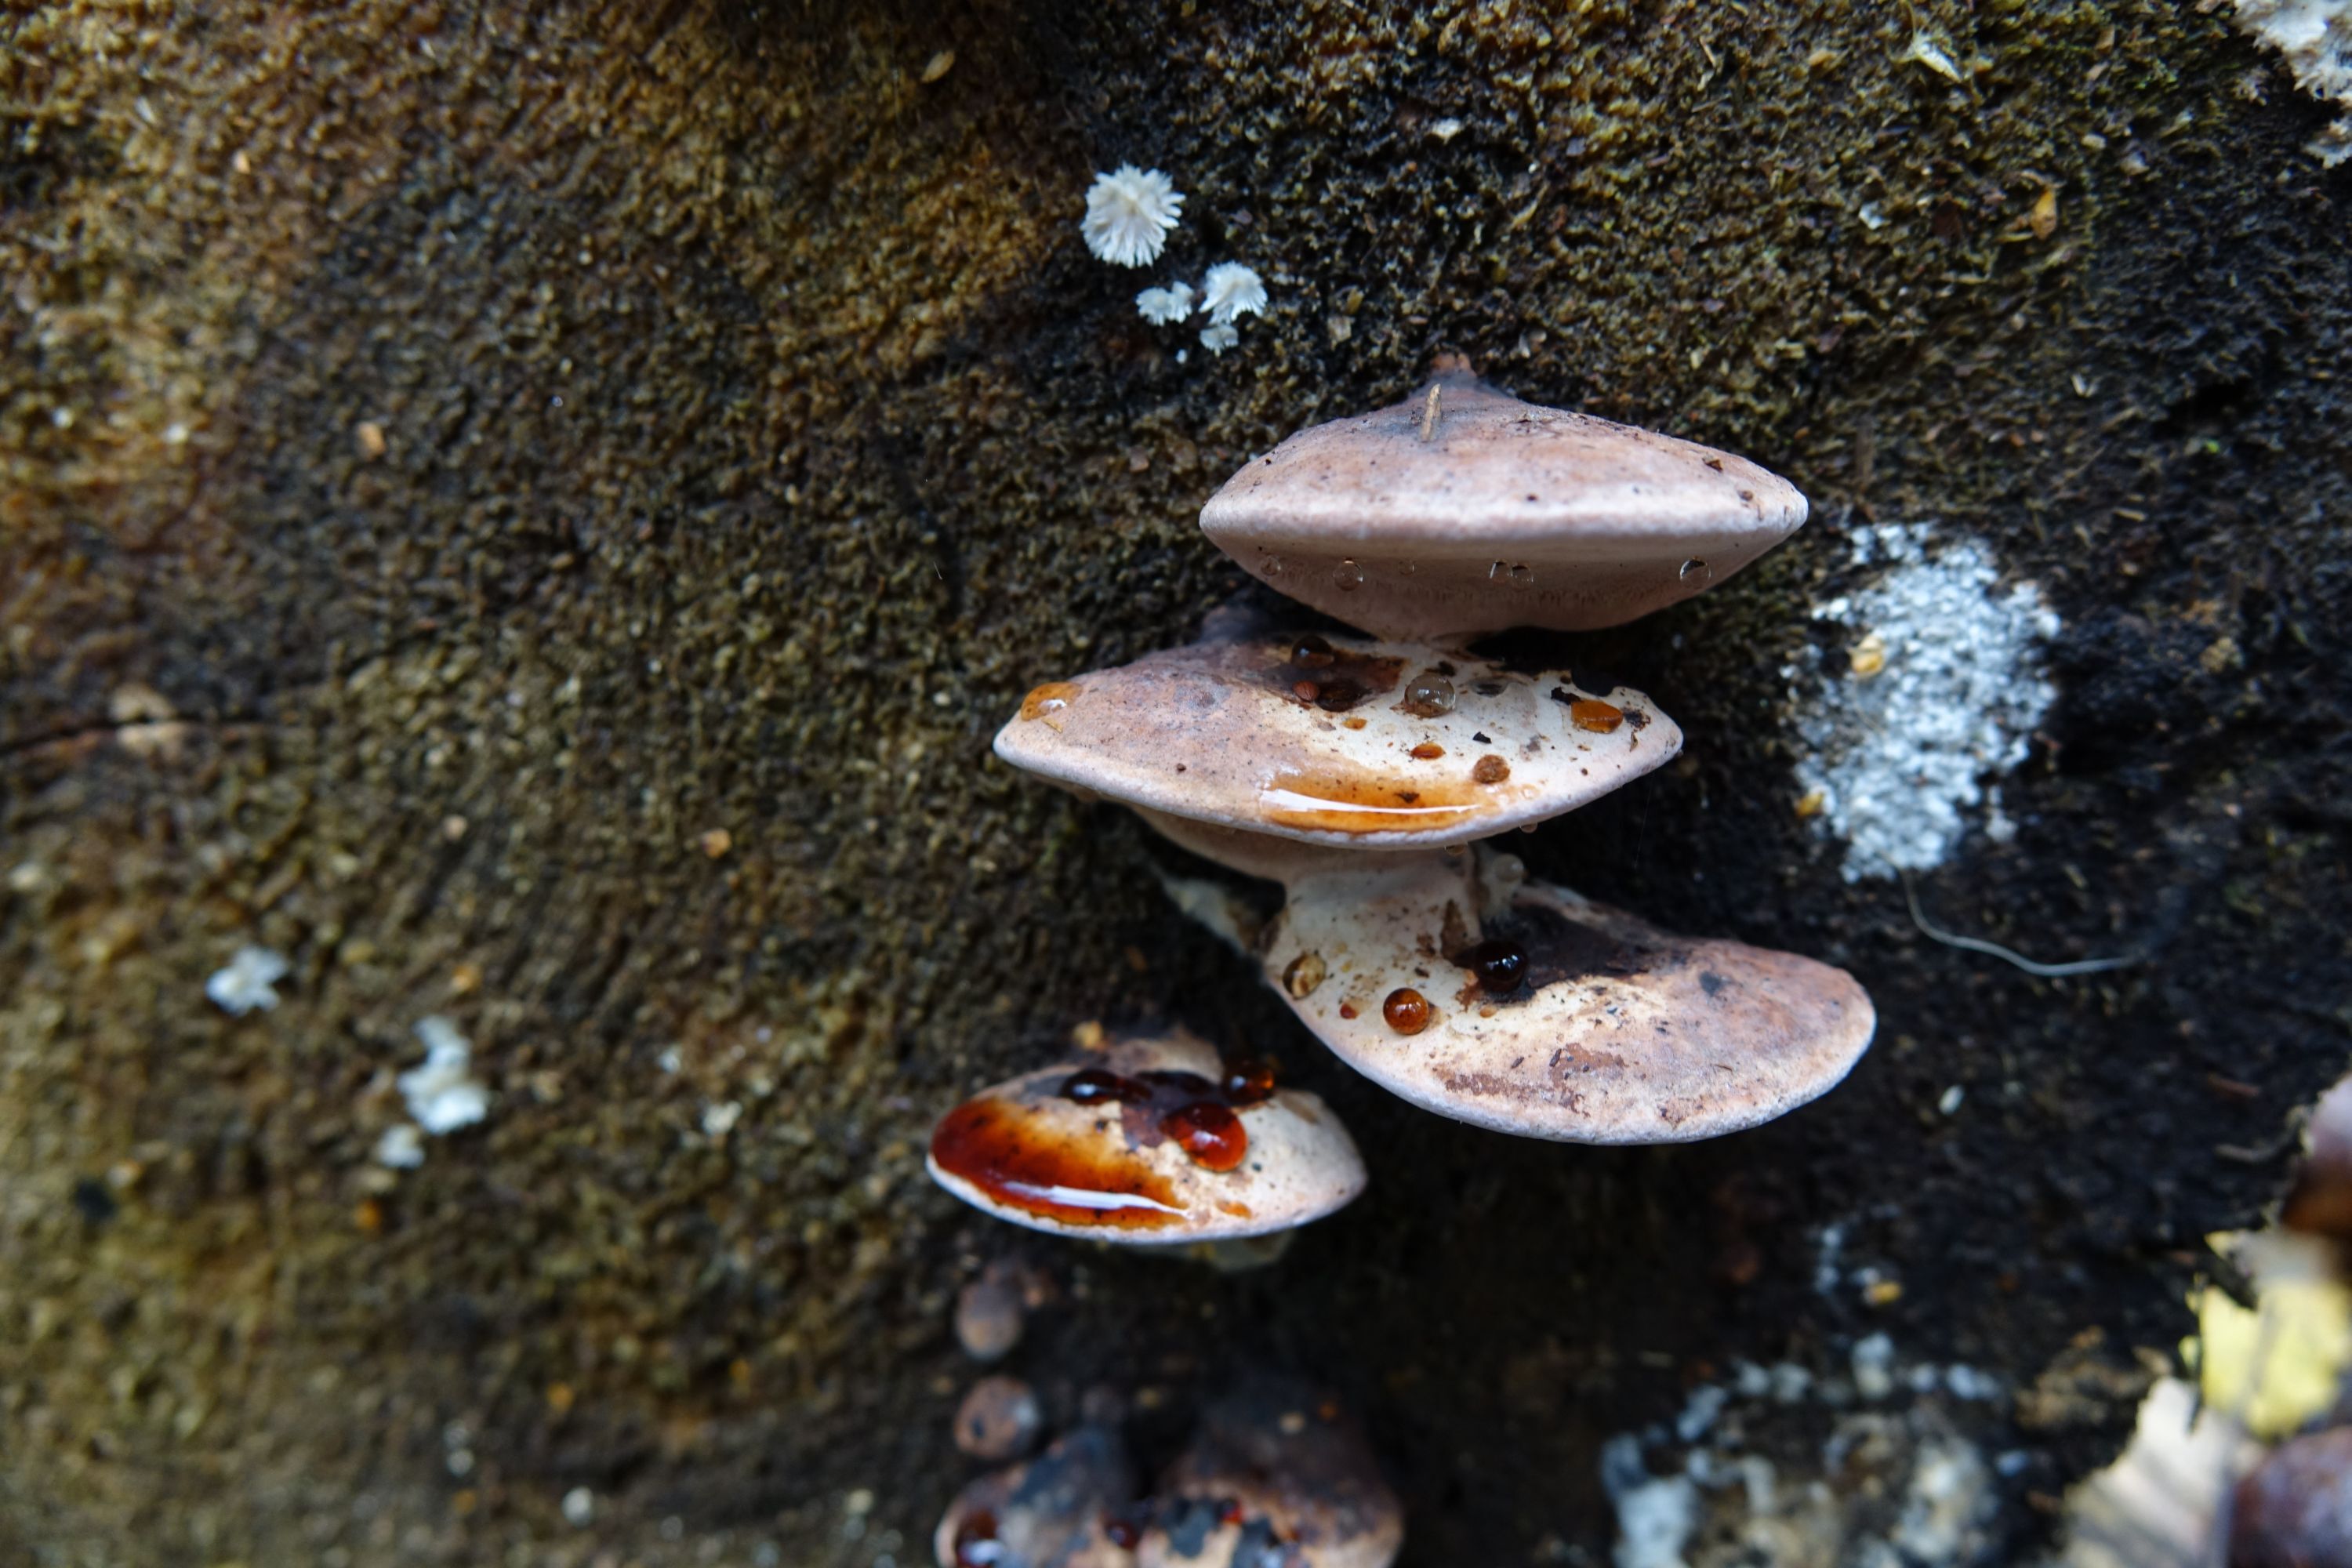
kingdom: Fungi
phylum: Basidiomycota
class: Agaricomycetes
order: Polyporales
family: Fomitopsidaceae
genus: Rhodofomes
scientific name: Rhodofomes roseus
